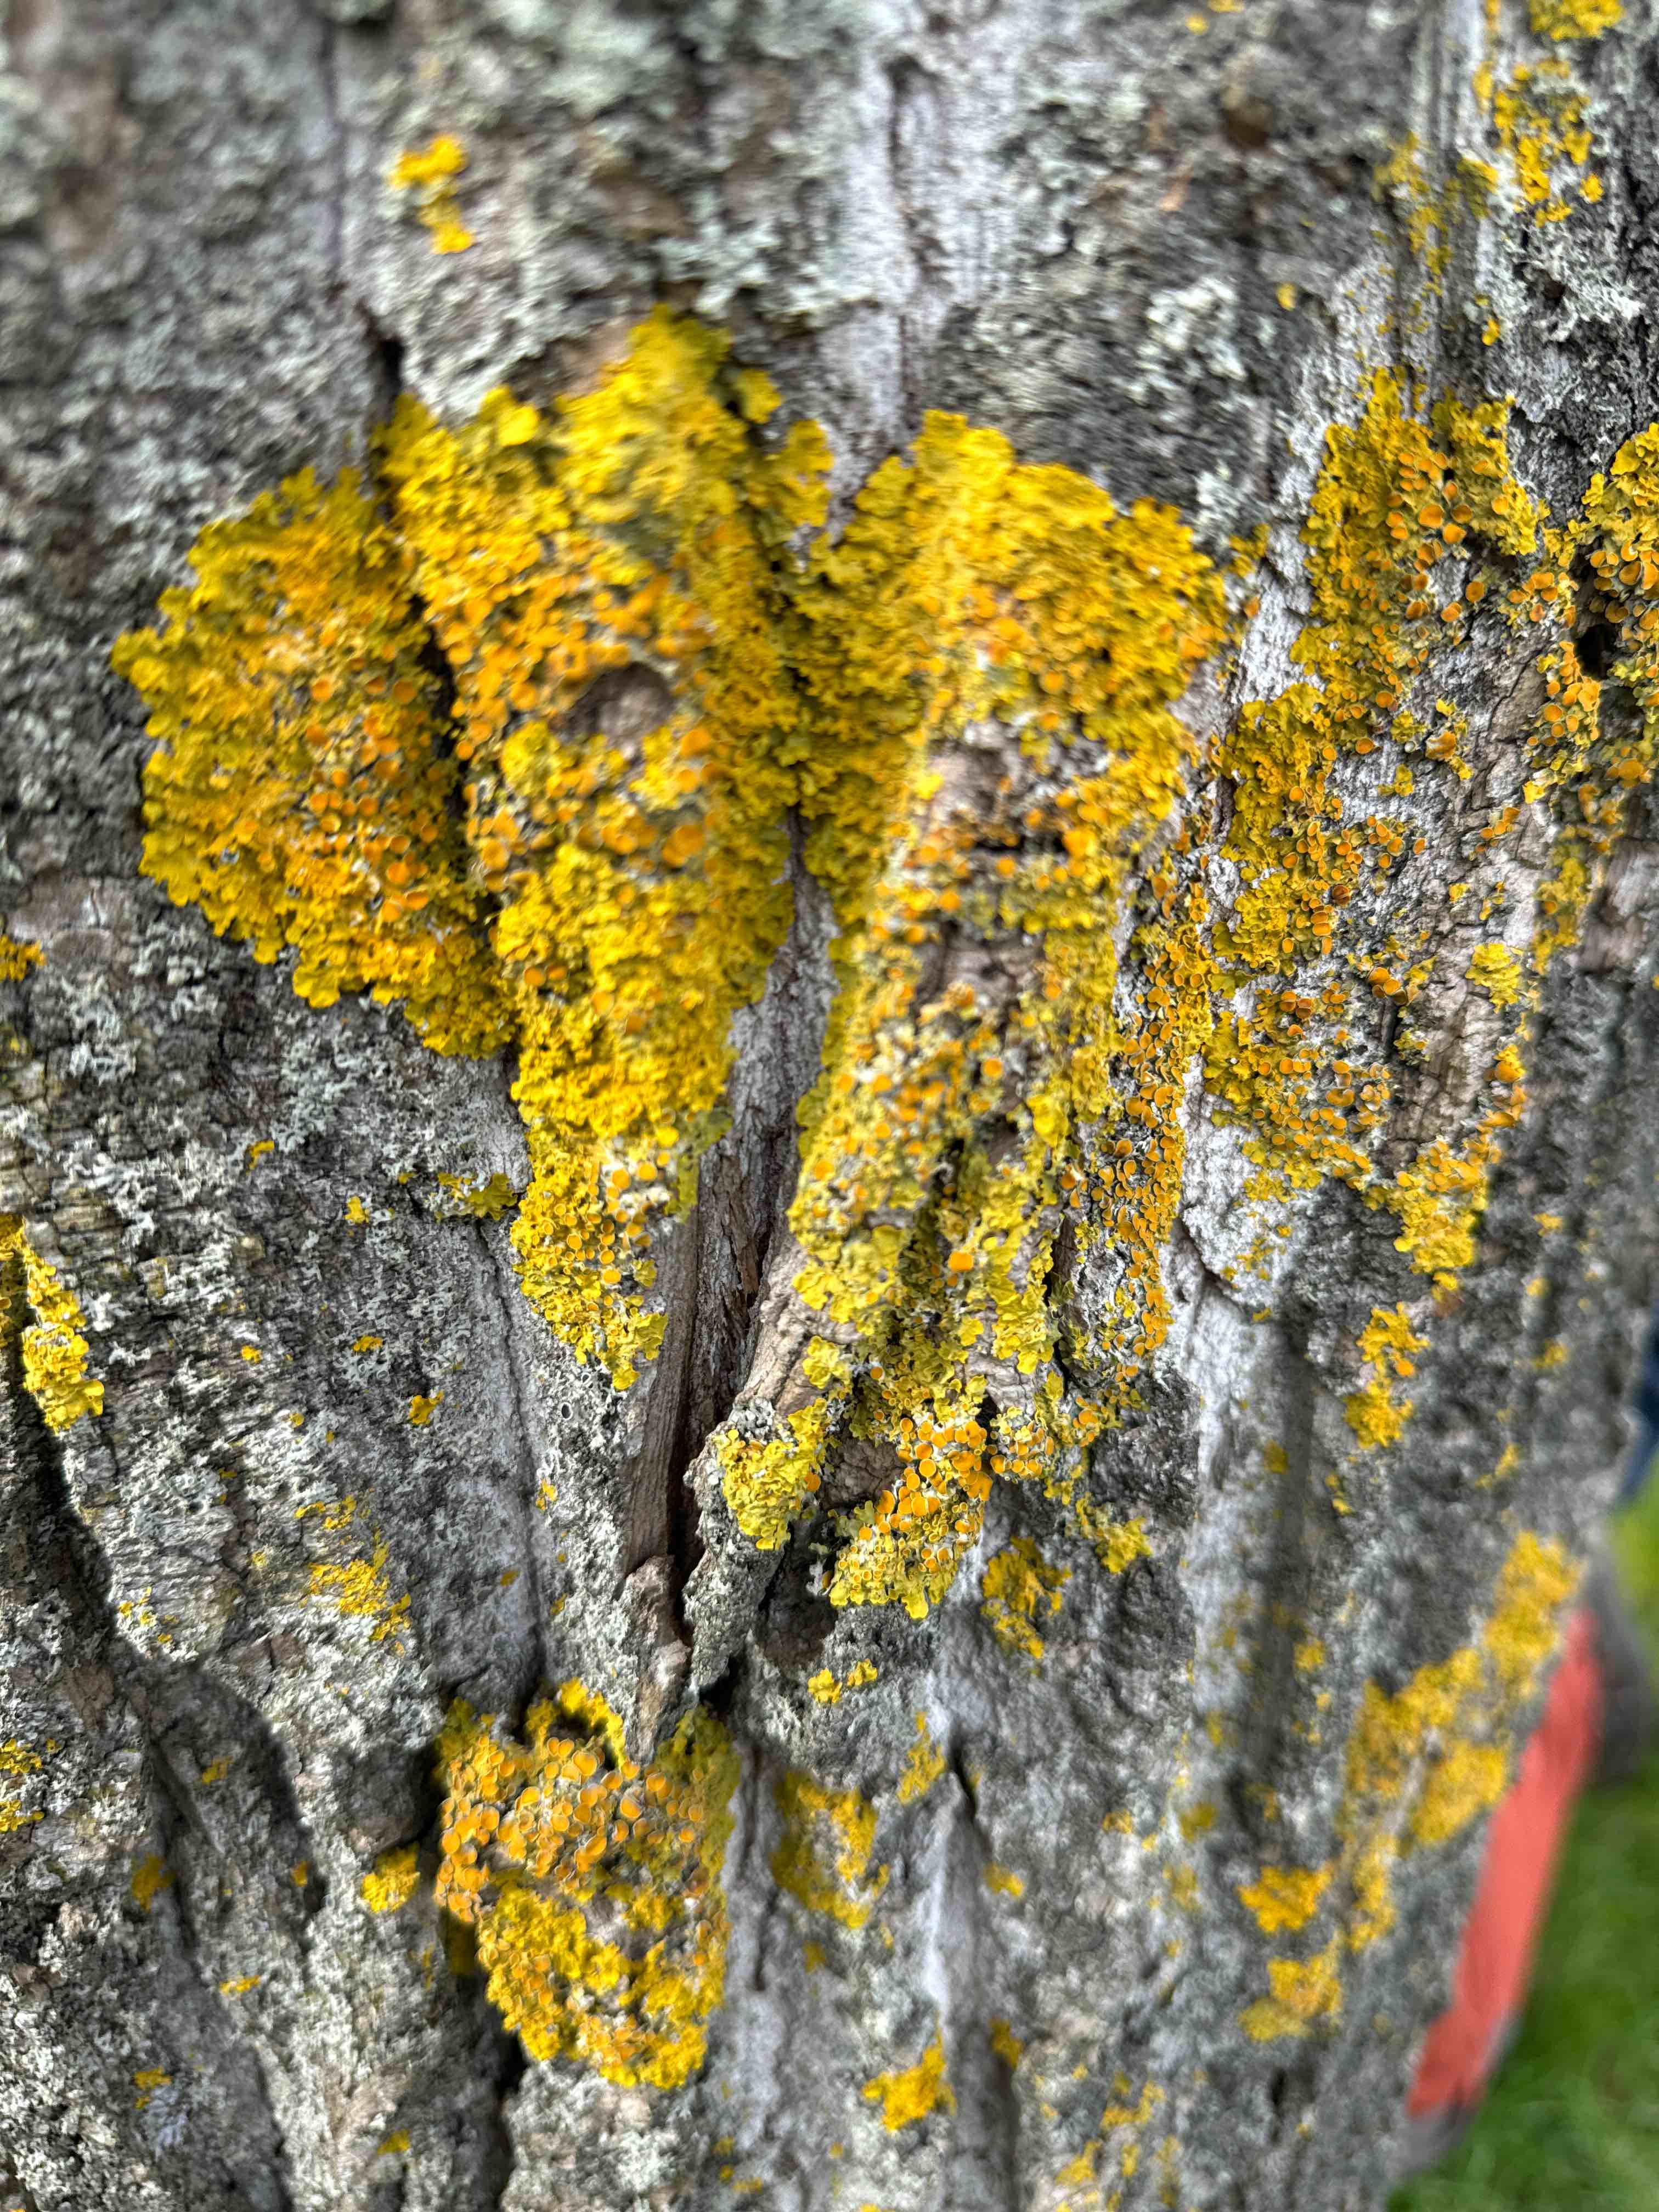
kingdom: Fungi
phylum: Ascomycota
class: Lecanoromycetes
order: Teloschistales
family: Teloschistaceae
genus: Xanthoria
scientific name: Xanthoria parietina
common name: almindelig væggelav
